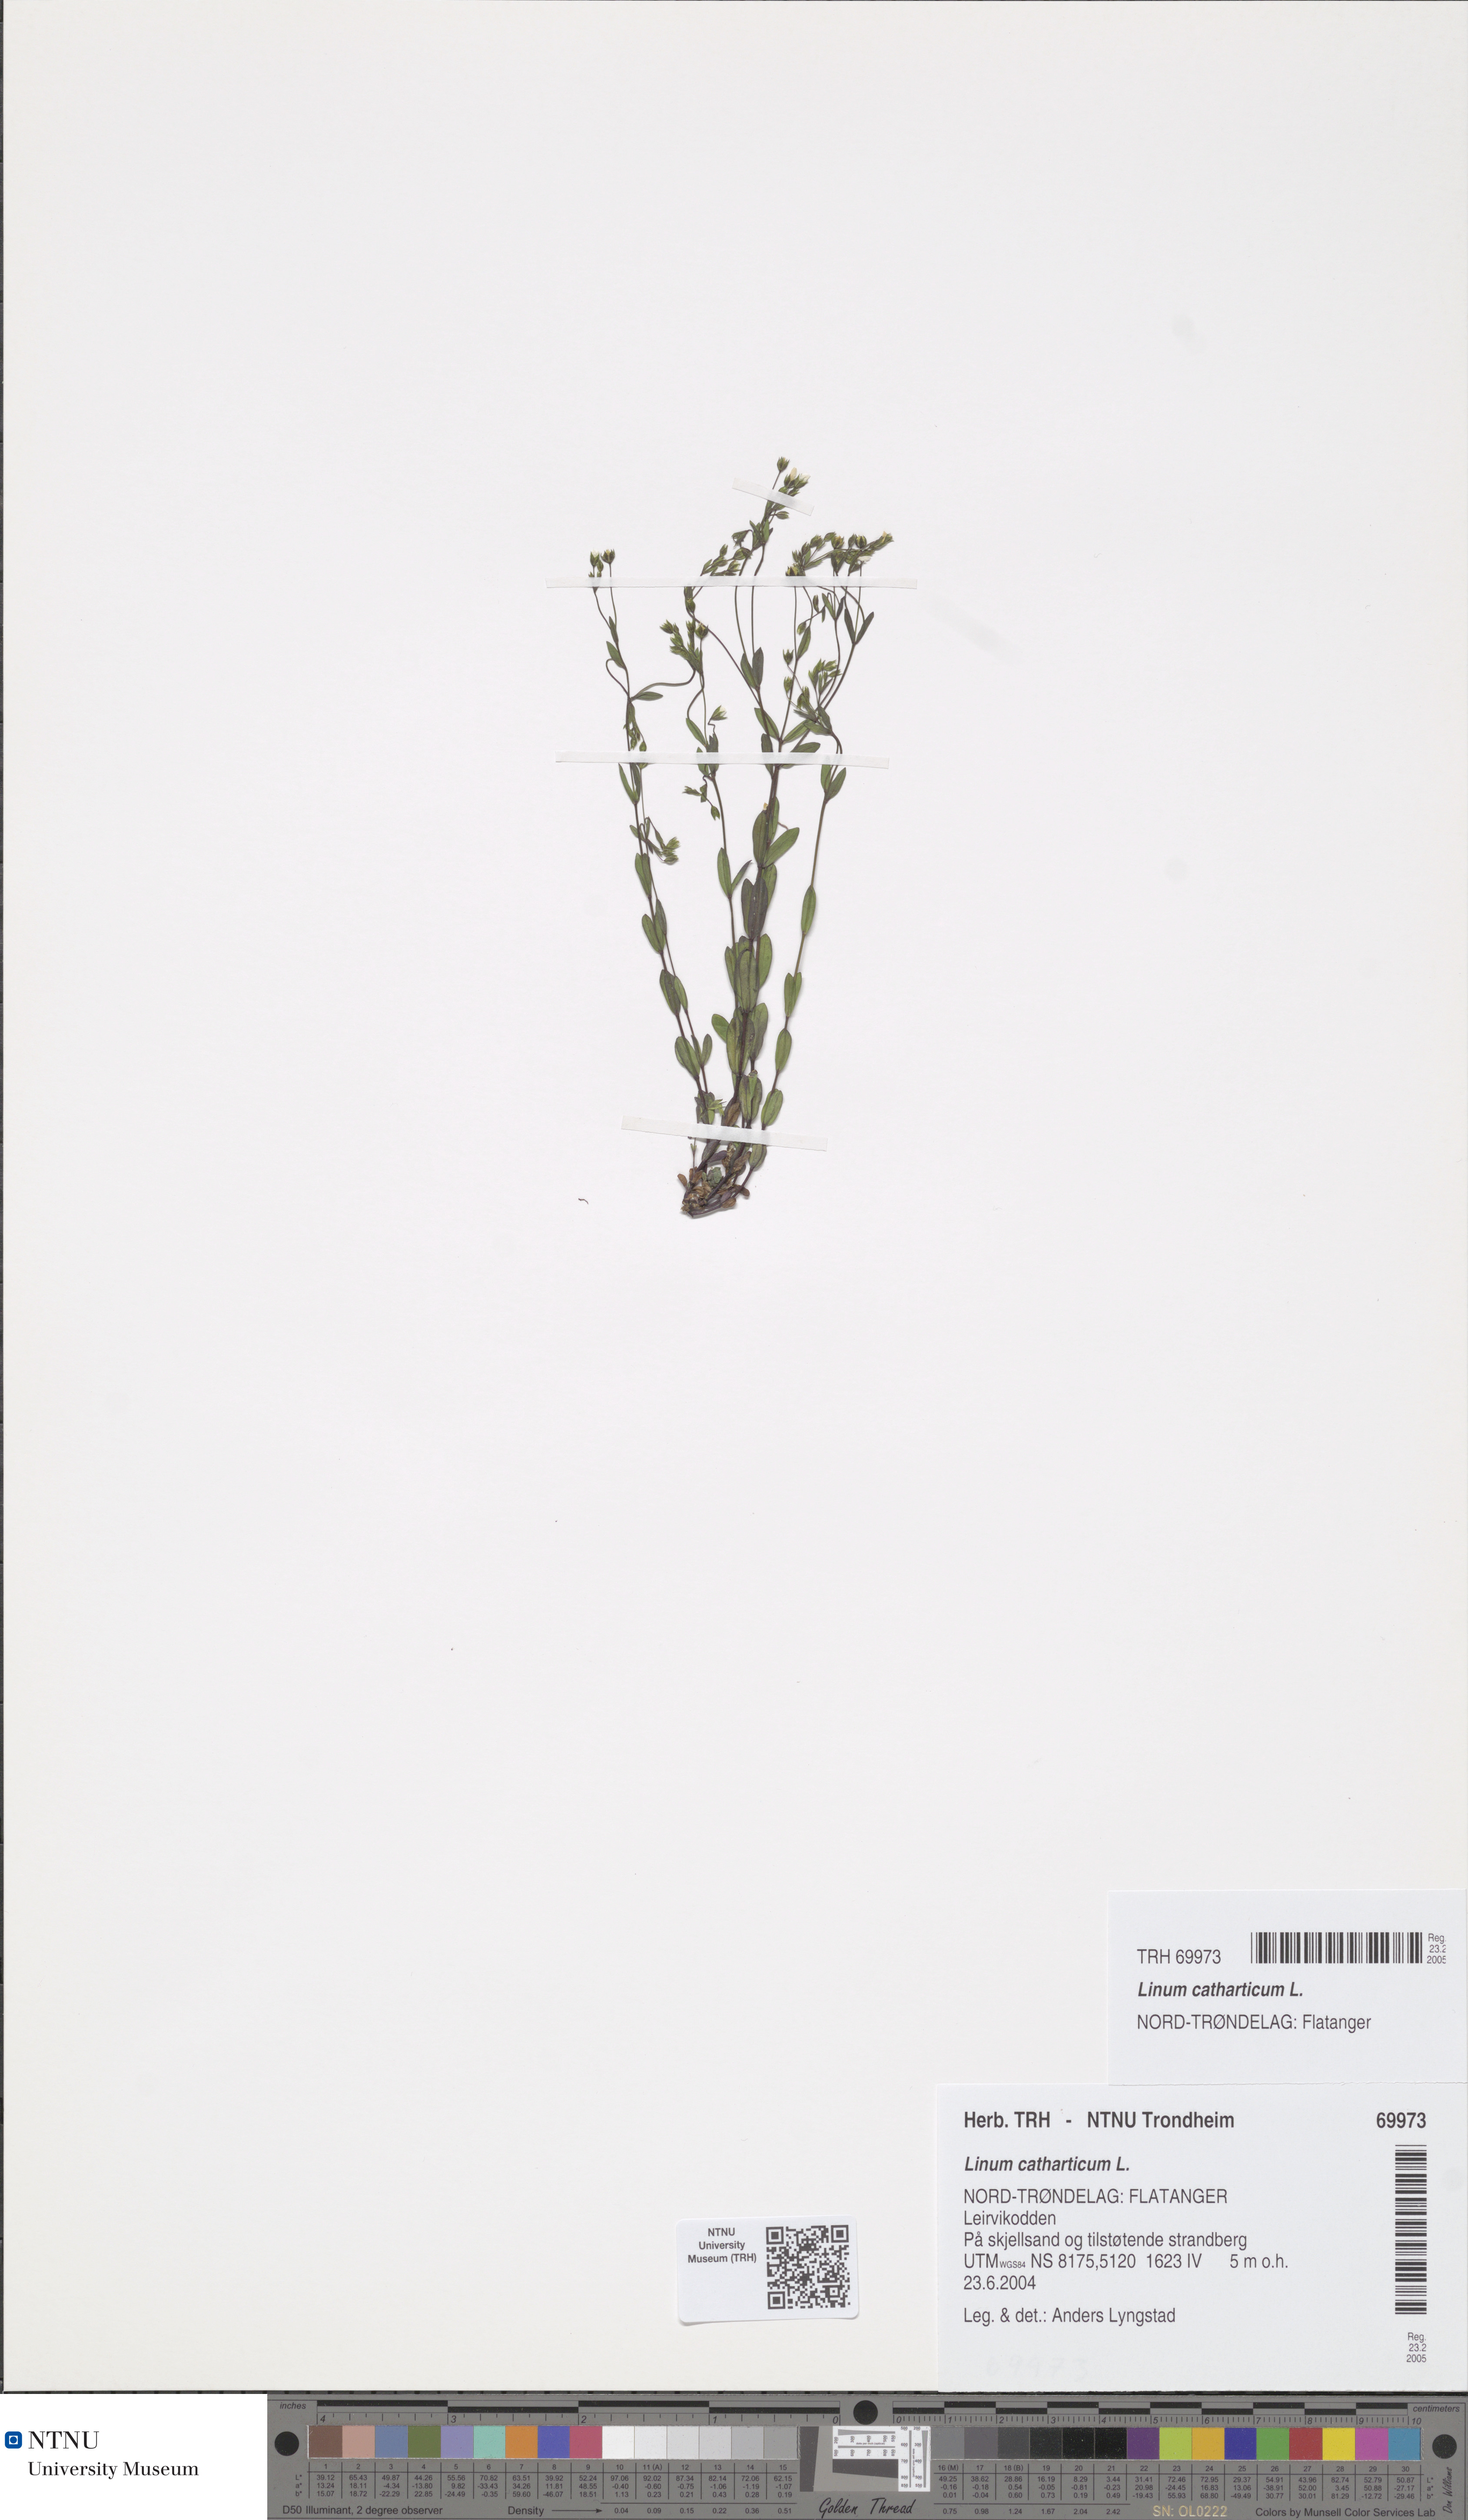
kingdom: Plantae
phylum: Tracheophyta
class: Magnoliopsida
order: Malpighiales
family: Linaceae
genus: Linum
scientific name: Linum catharticum
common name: Fairy flax
